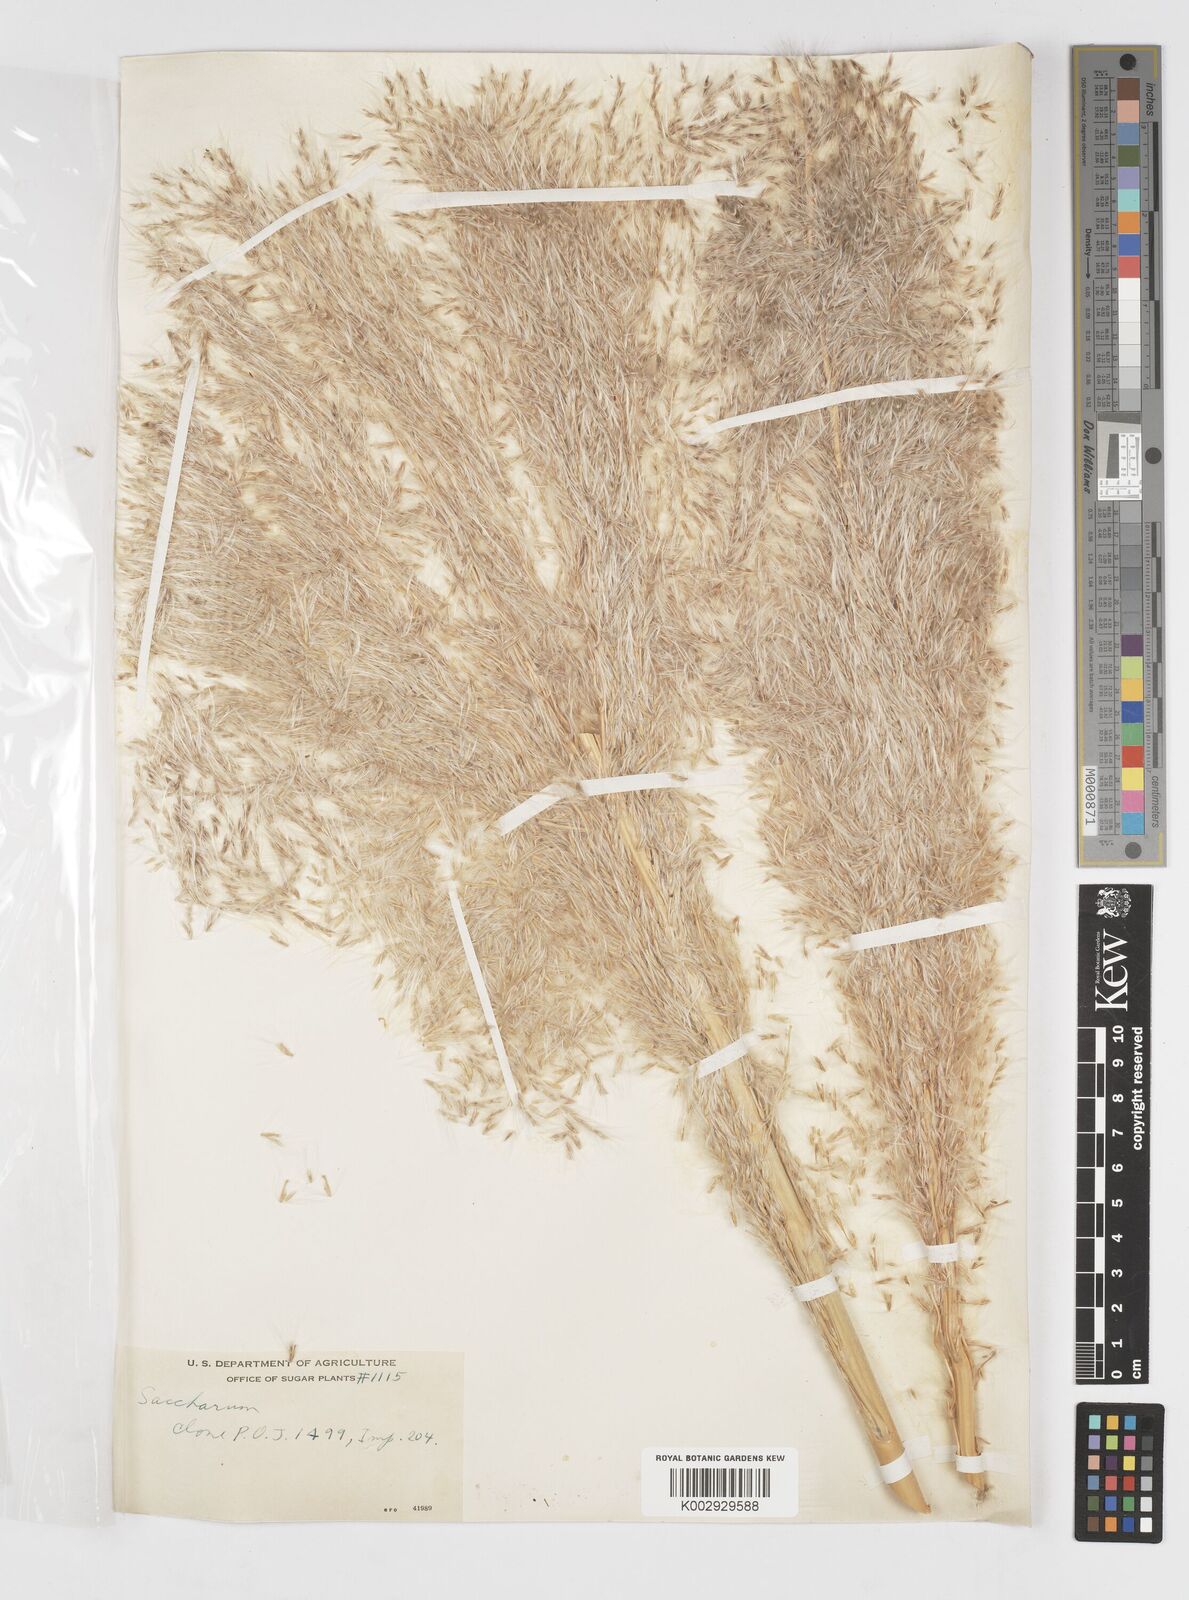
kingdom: Plantae
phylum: Tracheophyta
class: Liliopsida
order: Poales
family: Poaceae
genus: Saccharum
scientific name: Saccharum officinarum
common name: Sugarcane
